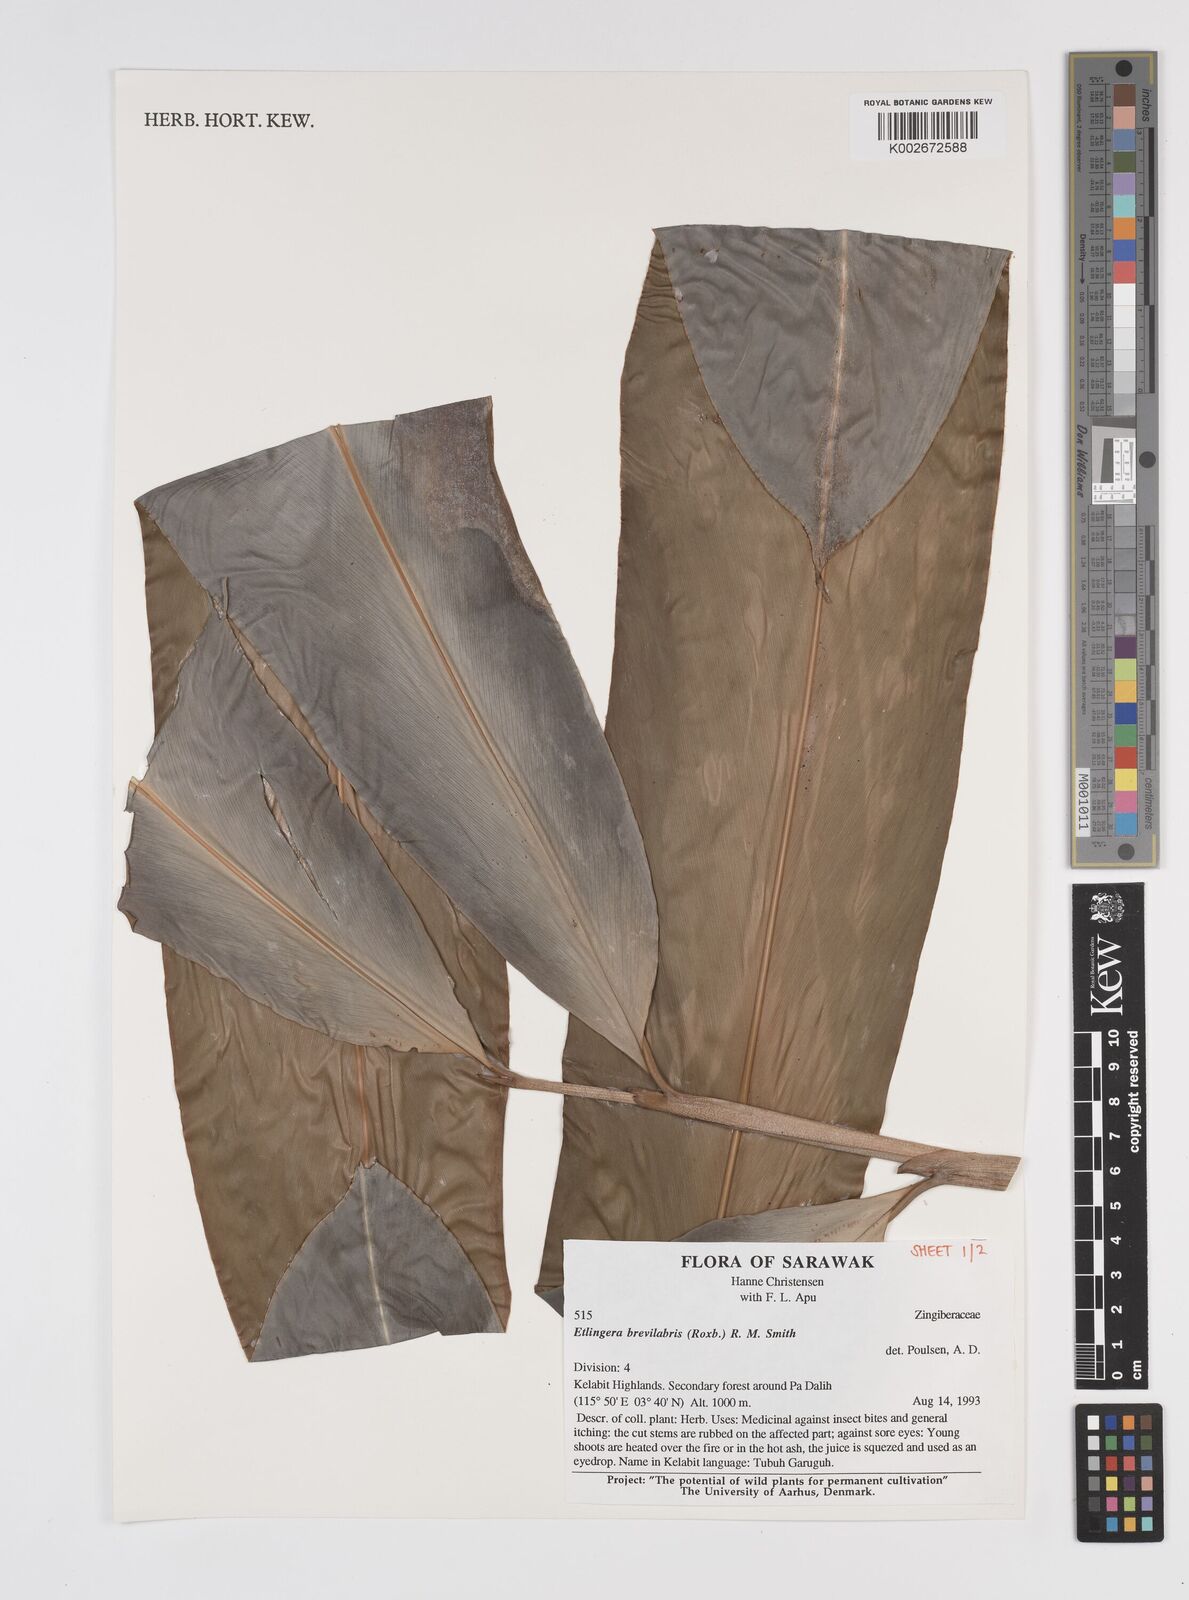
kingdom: Plantae
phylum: Tracheophyta
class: Liliopsida
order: Zingiberales
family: Zingiberaceae
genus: Etlingera
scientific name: Etlingera
